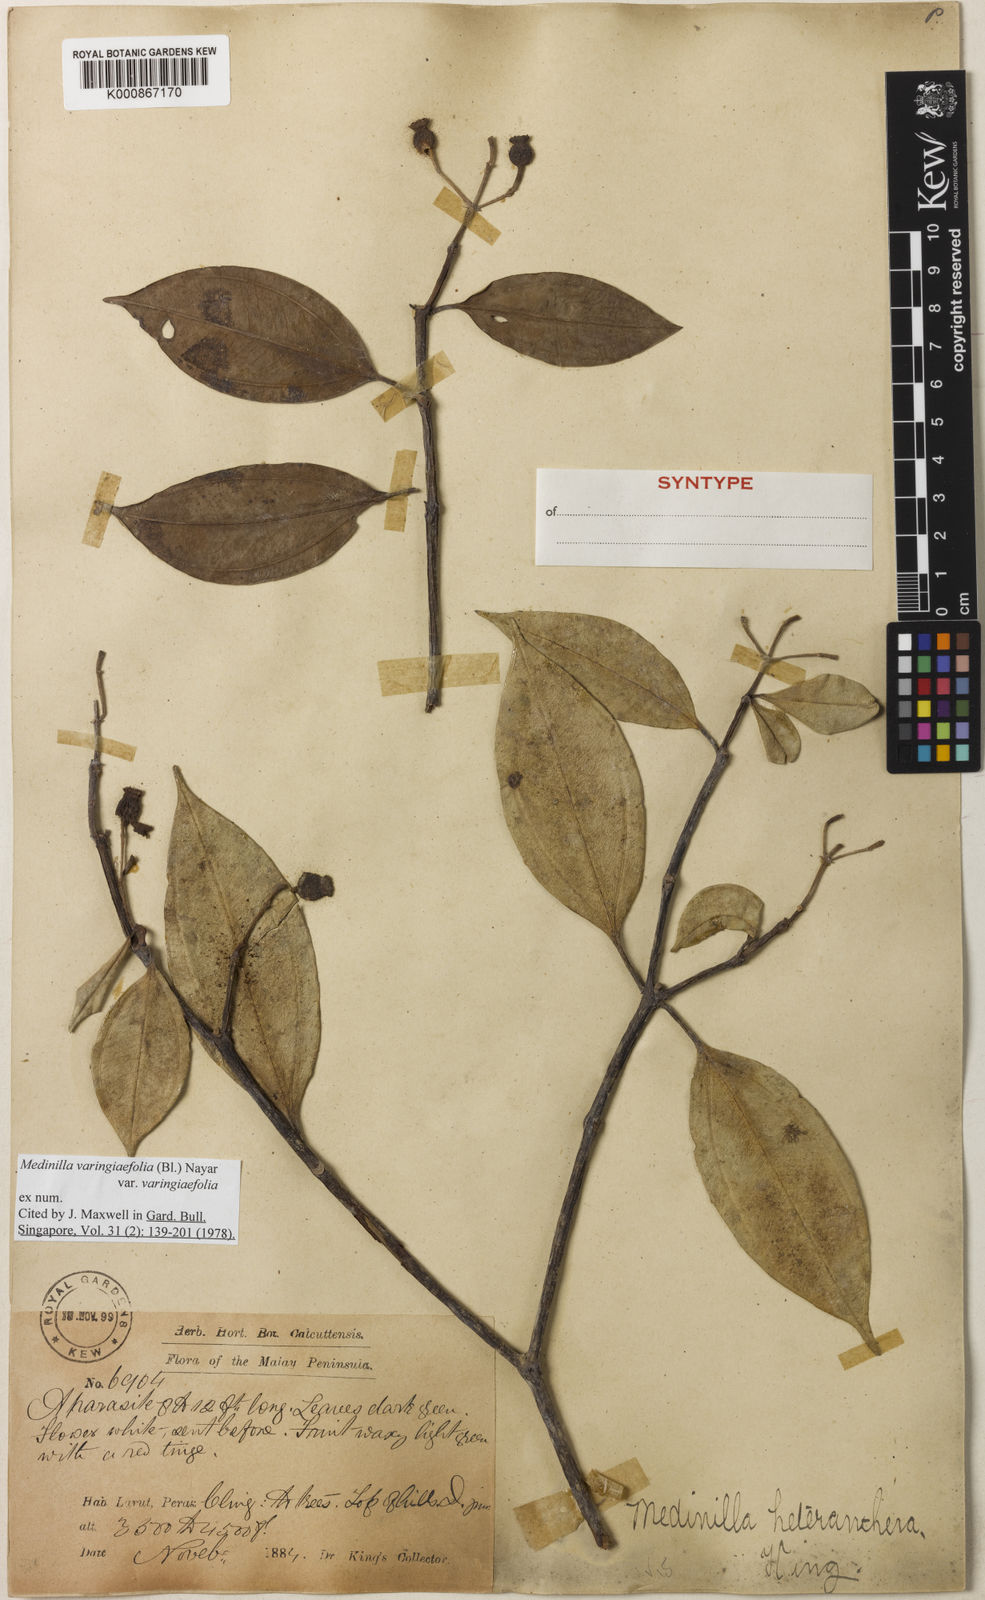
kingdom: Plantae
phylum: Tracheophyta
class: Magnoliopsida
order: Myrtales
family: Melastomataceae
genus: Pachycentria
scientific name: Pachycentria varingiaefolia
